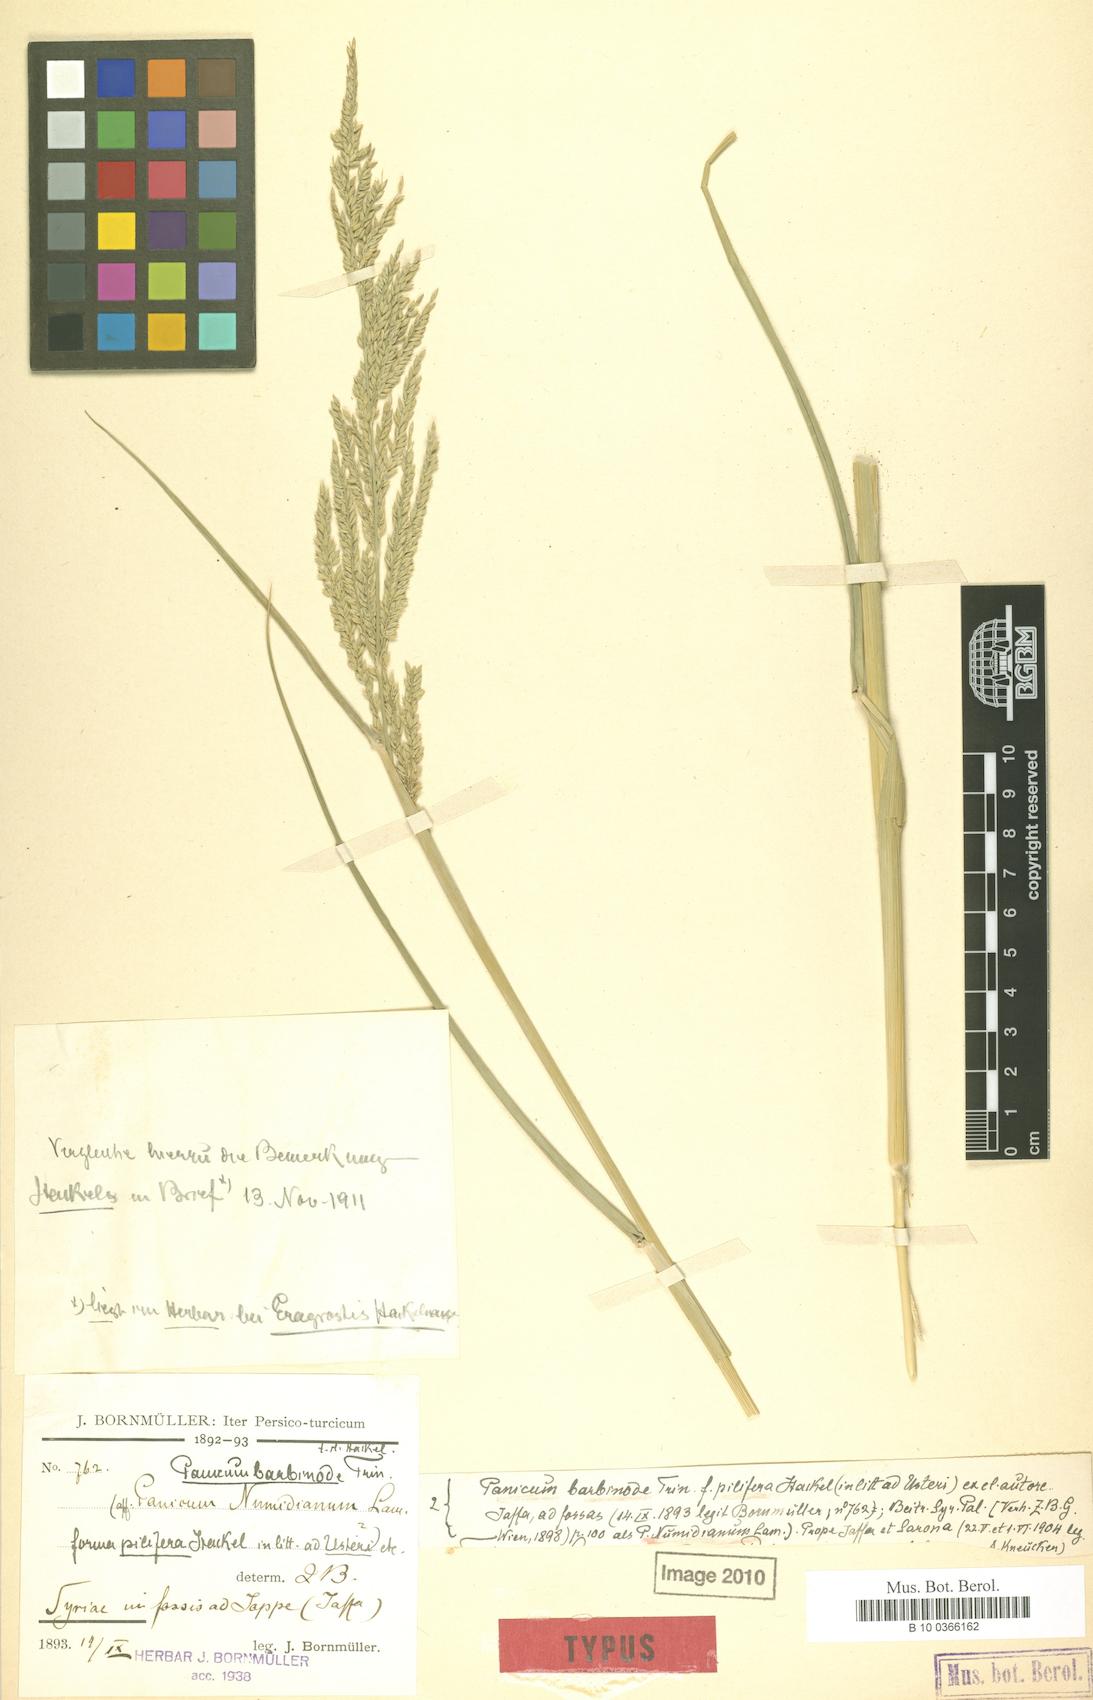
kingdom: Plantae
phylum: Tracheophyta
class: Liliopsida
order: Poales
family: Poaceae
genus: Urochloa
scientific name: Urochloa mutica
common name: Para grass
